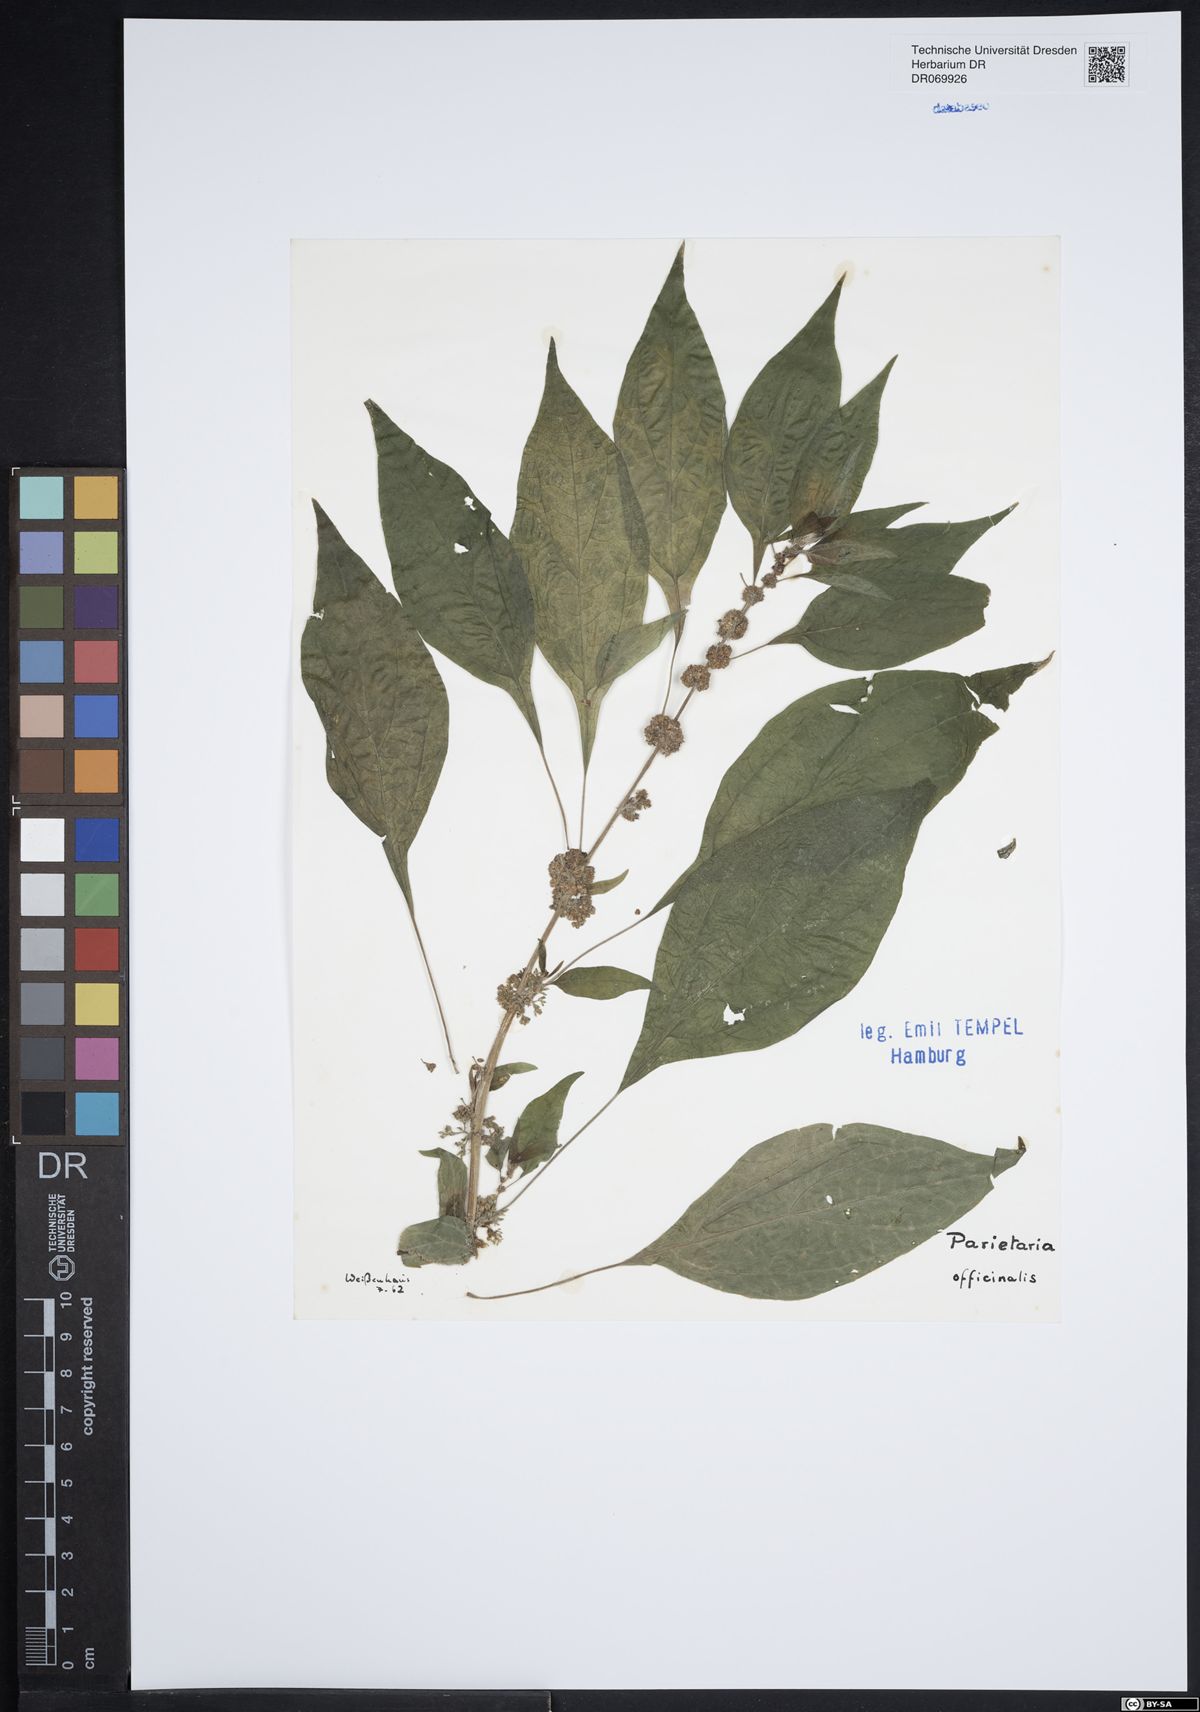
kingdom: Plantae
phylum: Tracheophyta
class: Magnoliopsida
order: Rosales
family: Urticaceae
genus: Parietaria
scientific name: Parietaria officinalis
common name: Eastern pellitory-of-the-wall
